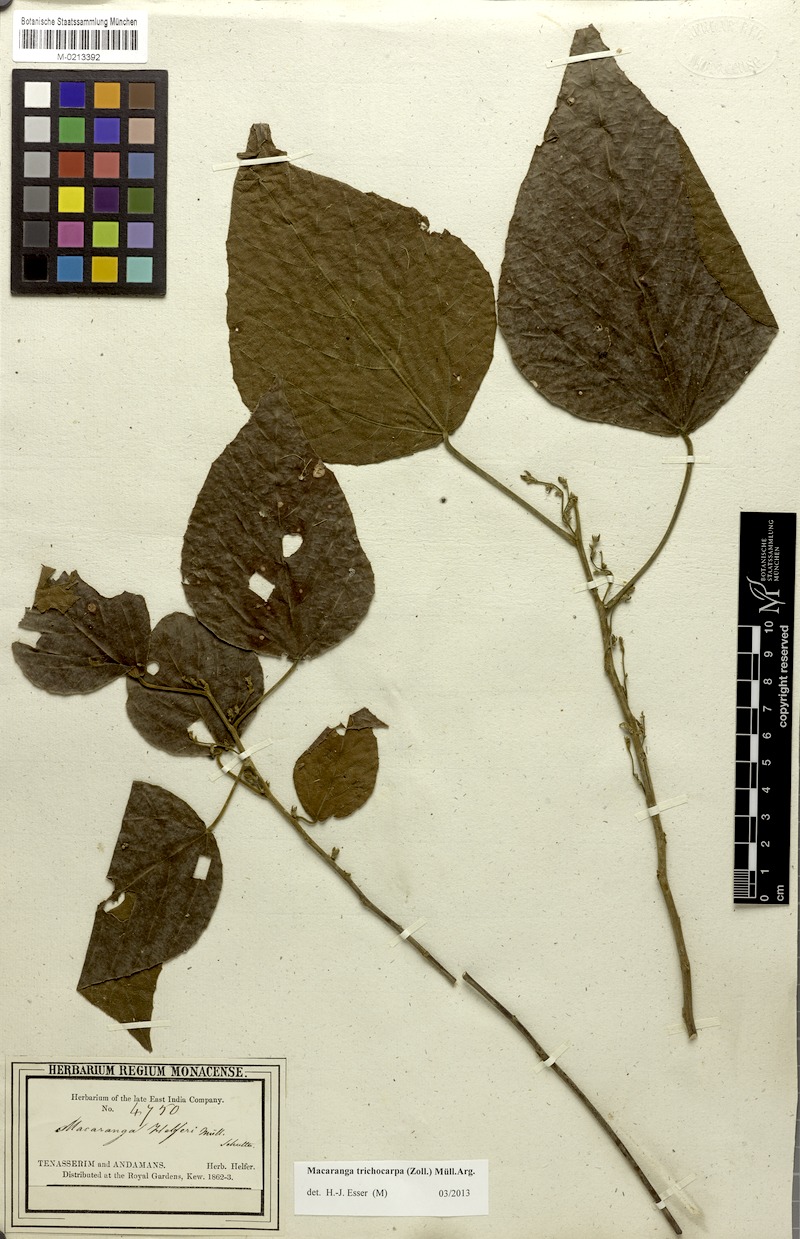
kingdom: Plantae
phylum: Tracheophyta
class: Magnoliopsida
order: Malpighiales
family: Euphorbiaceae
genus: Macaranga
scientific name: Macaranga trichocarpa
